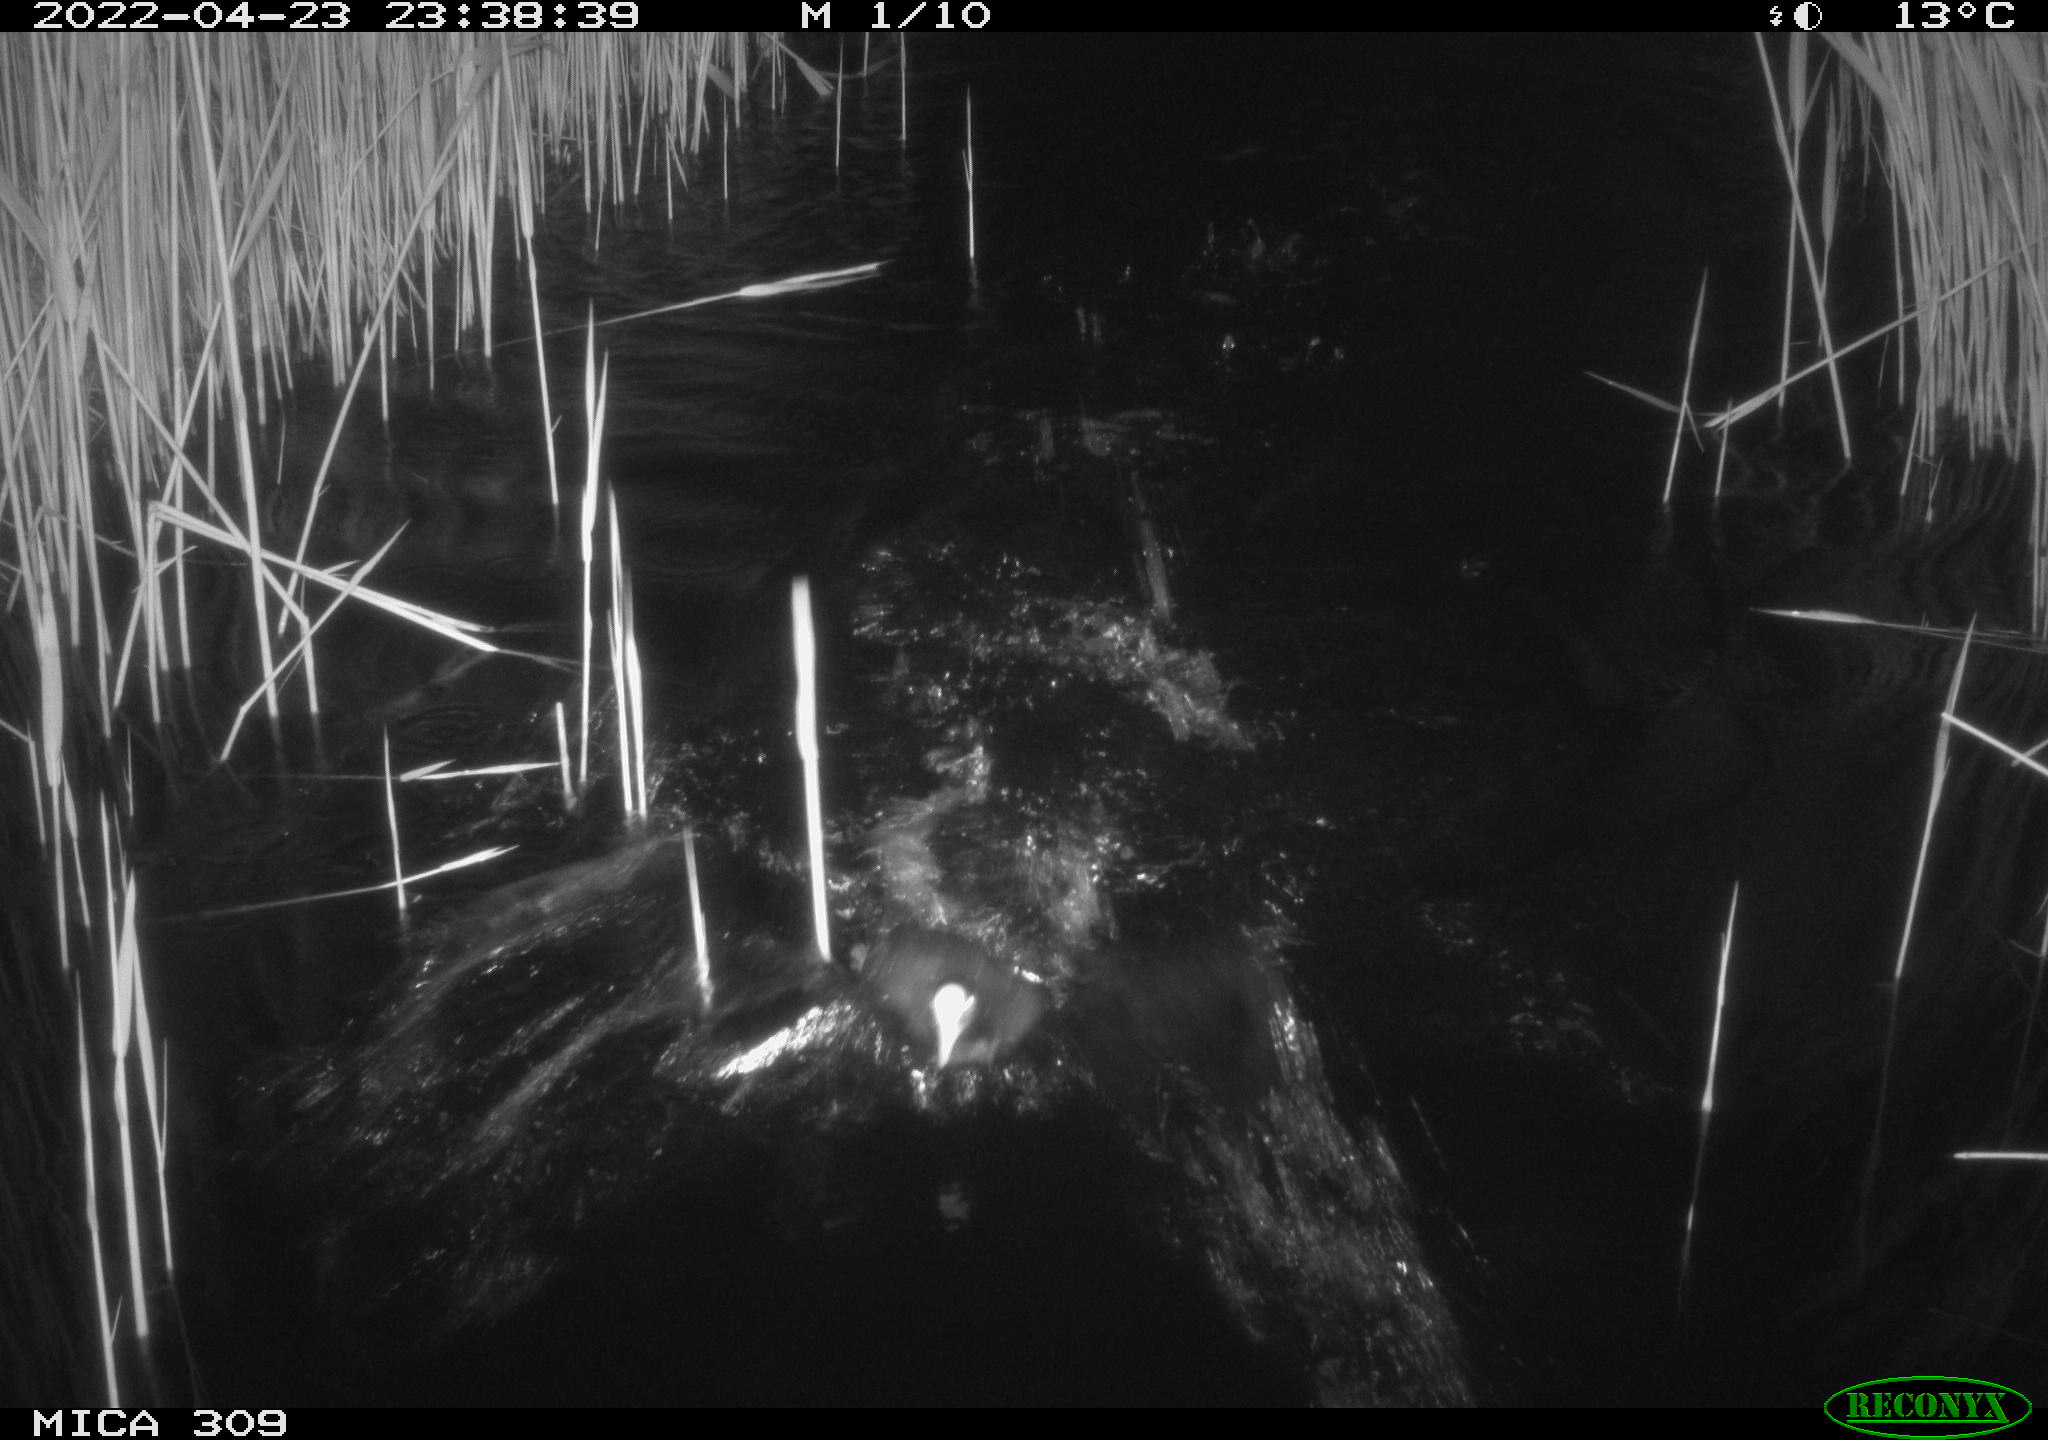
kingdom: Animalia
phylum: Chordata
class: Aves
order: Gruiformes
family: Rallidae
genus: Fulica
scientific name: Fulica atra
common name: Eurasian coot
